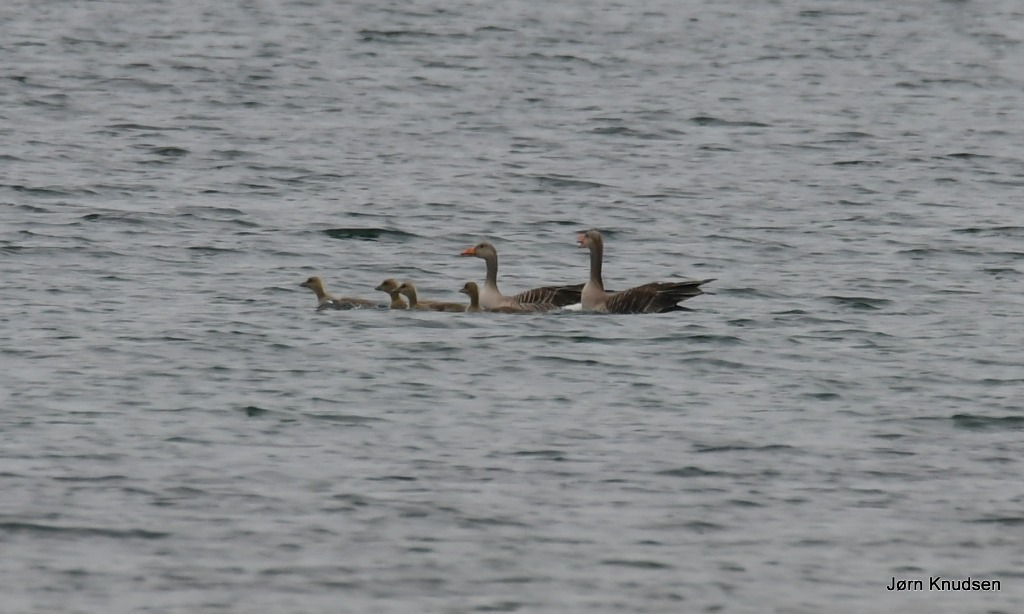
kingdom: Animalia
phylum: Chordata
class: Aves
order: Anseriformes
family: Anatidae
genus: Anser
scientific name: Anser anser
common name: Grågås
